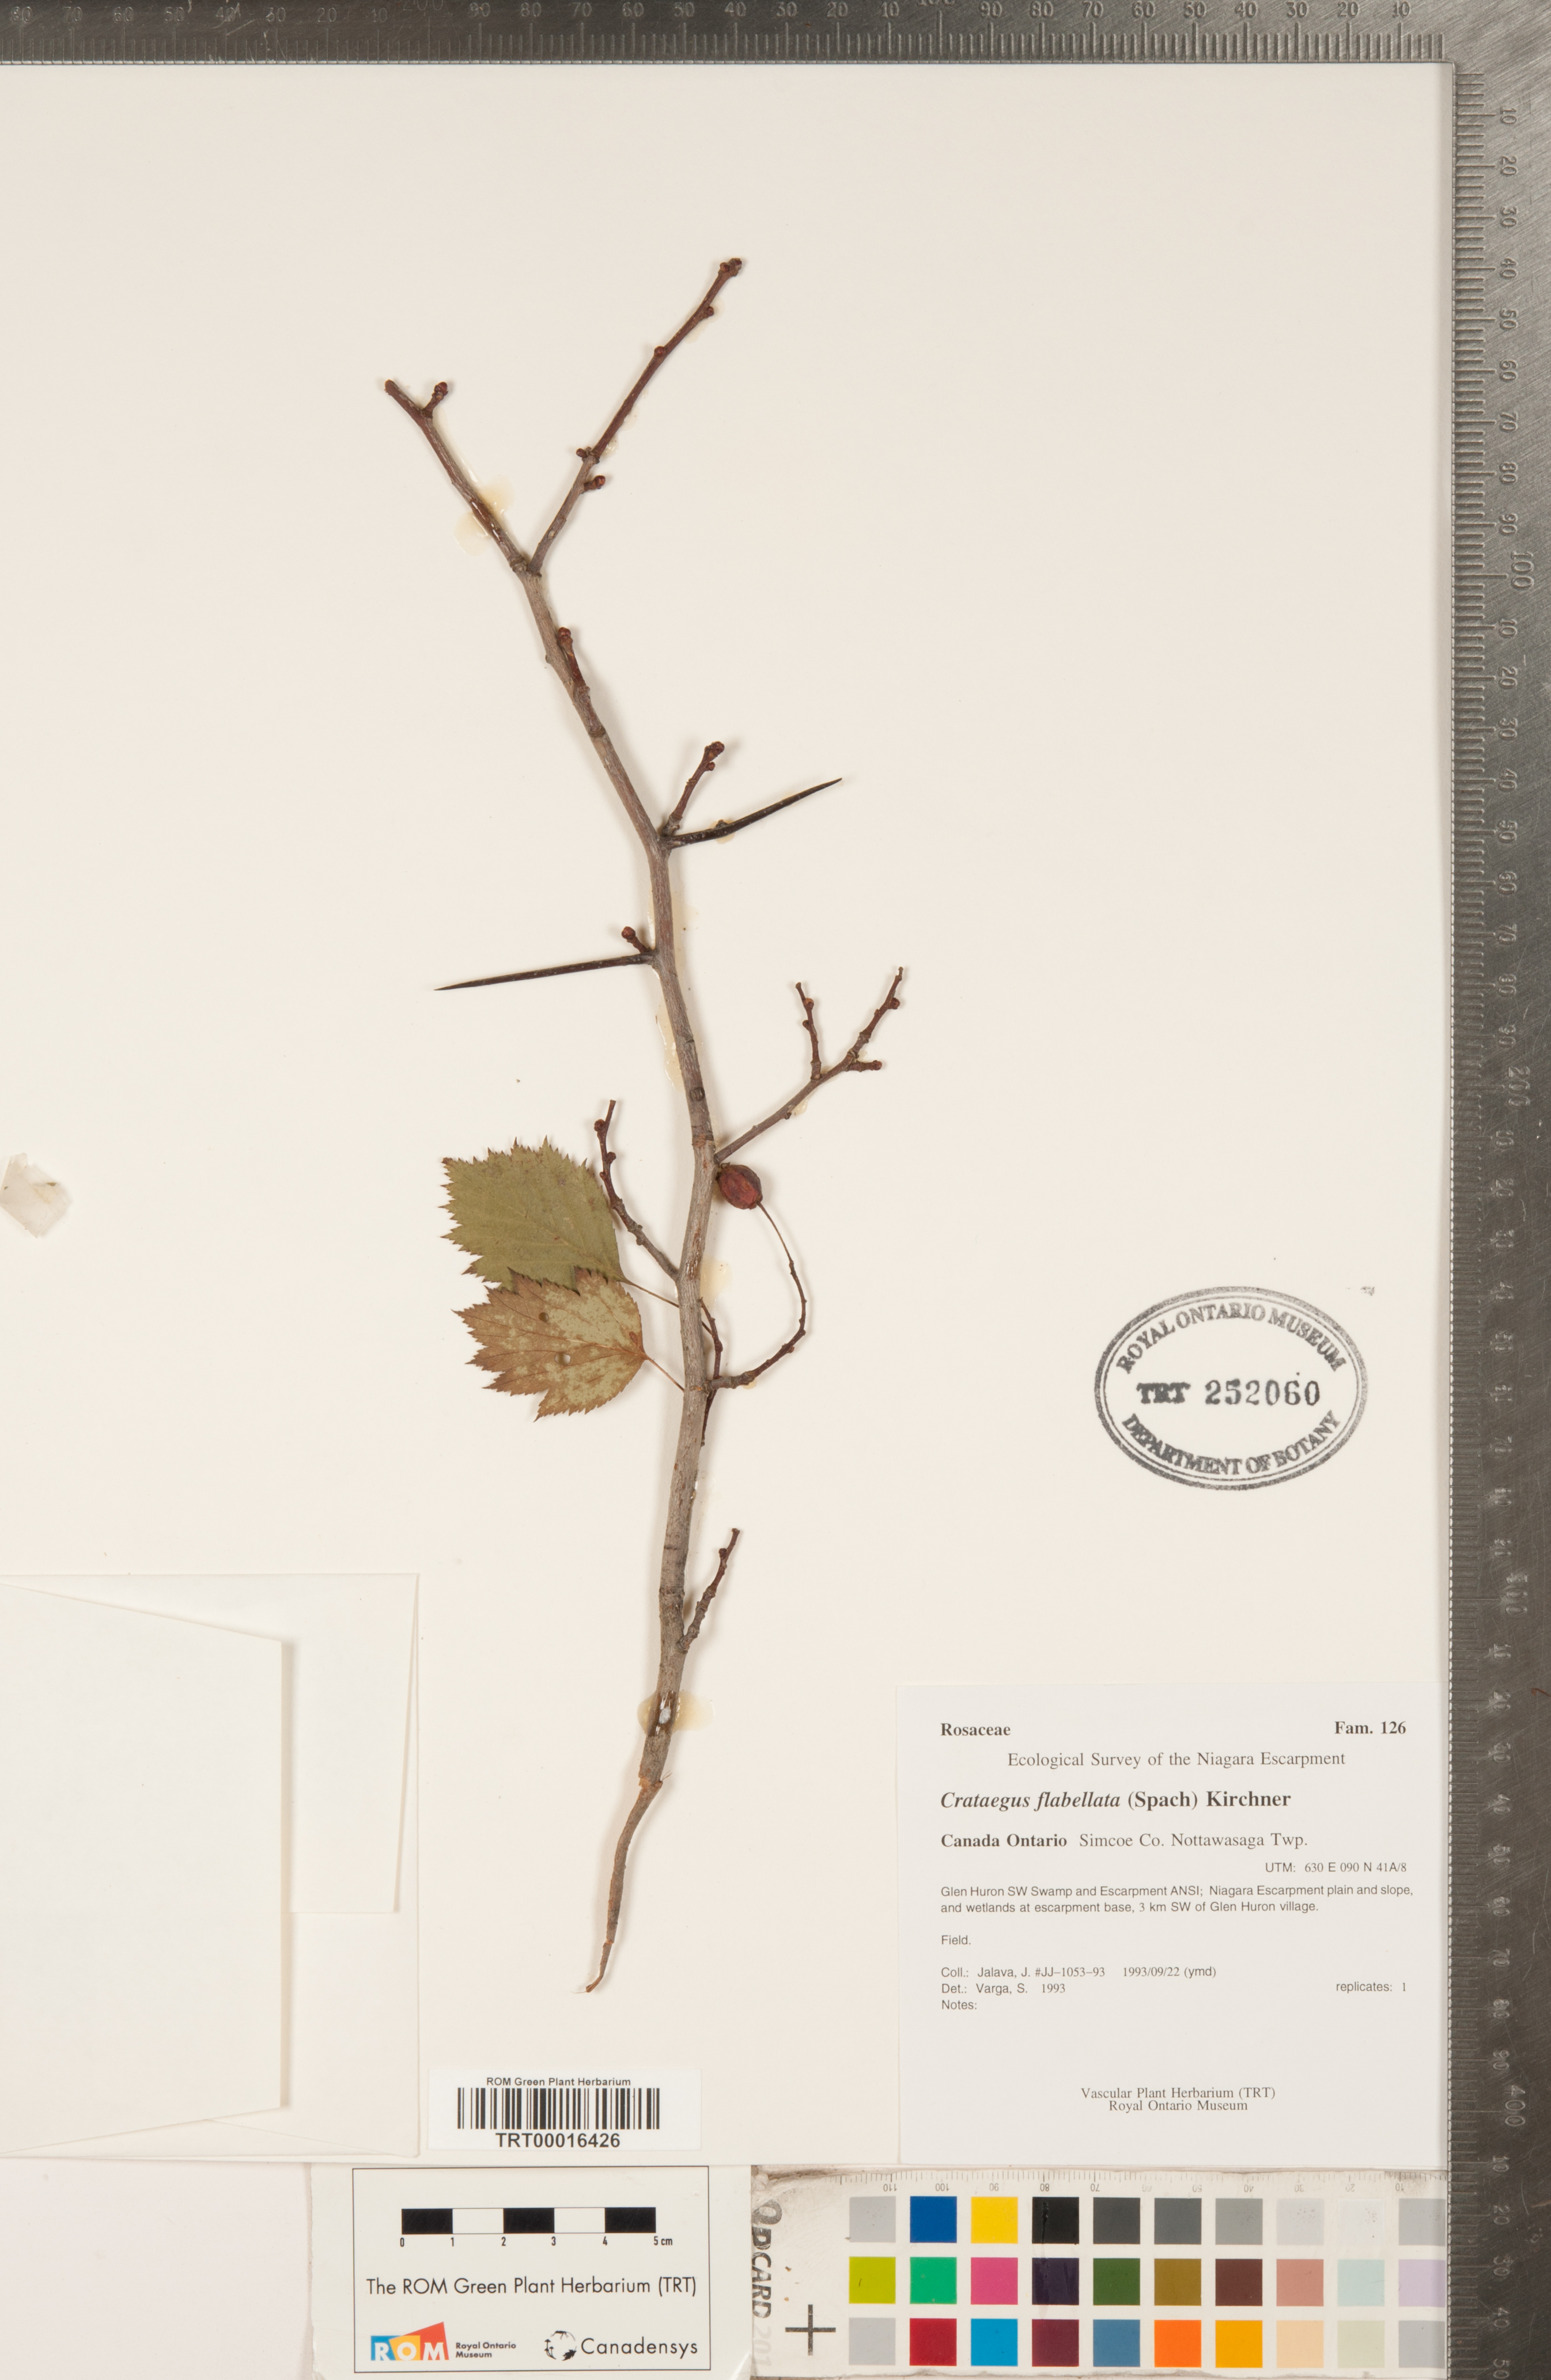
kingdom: Plantae
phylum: Tracheophyta
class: Magnoliopsida
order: Rosales
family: Rosaceae
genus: Crataegus
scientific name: Crataegus flabellata
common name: Bosc's hawthorn
